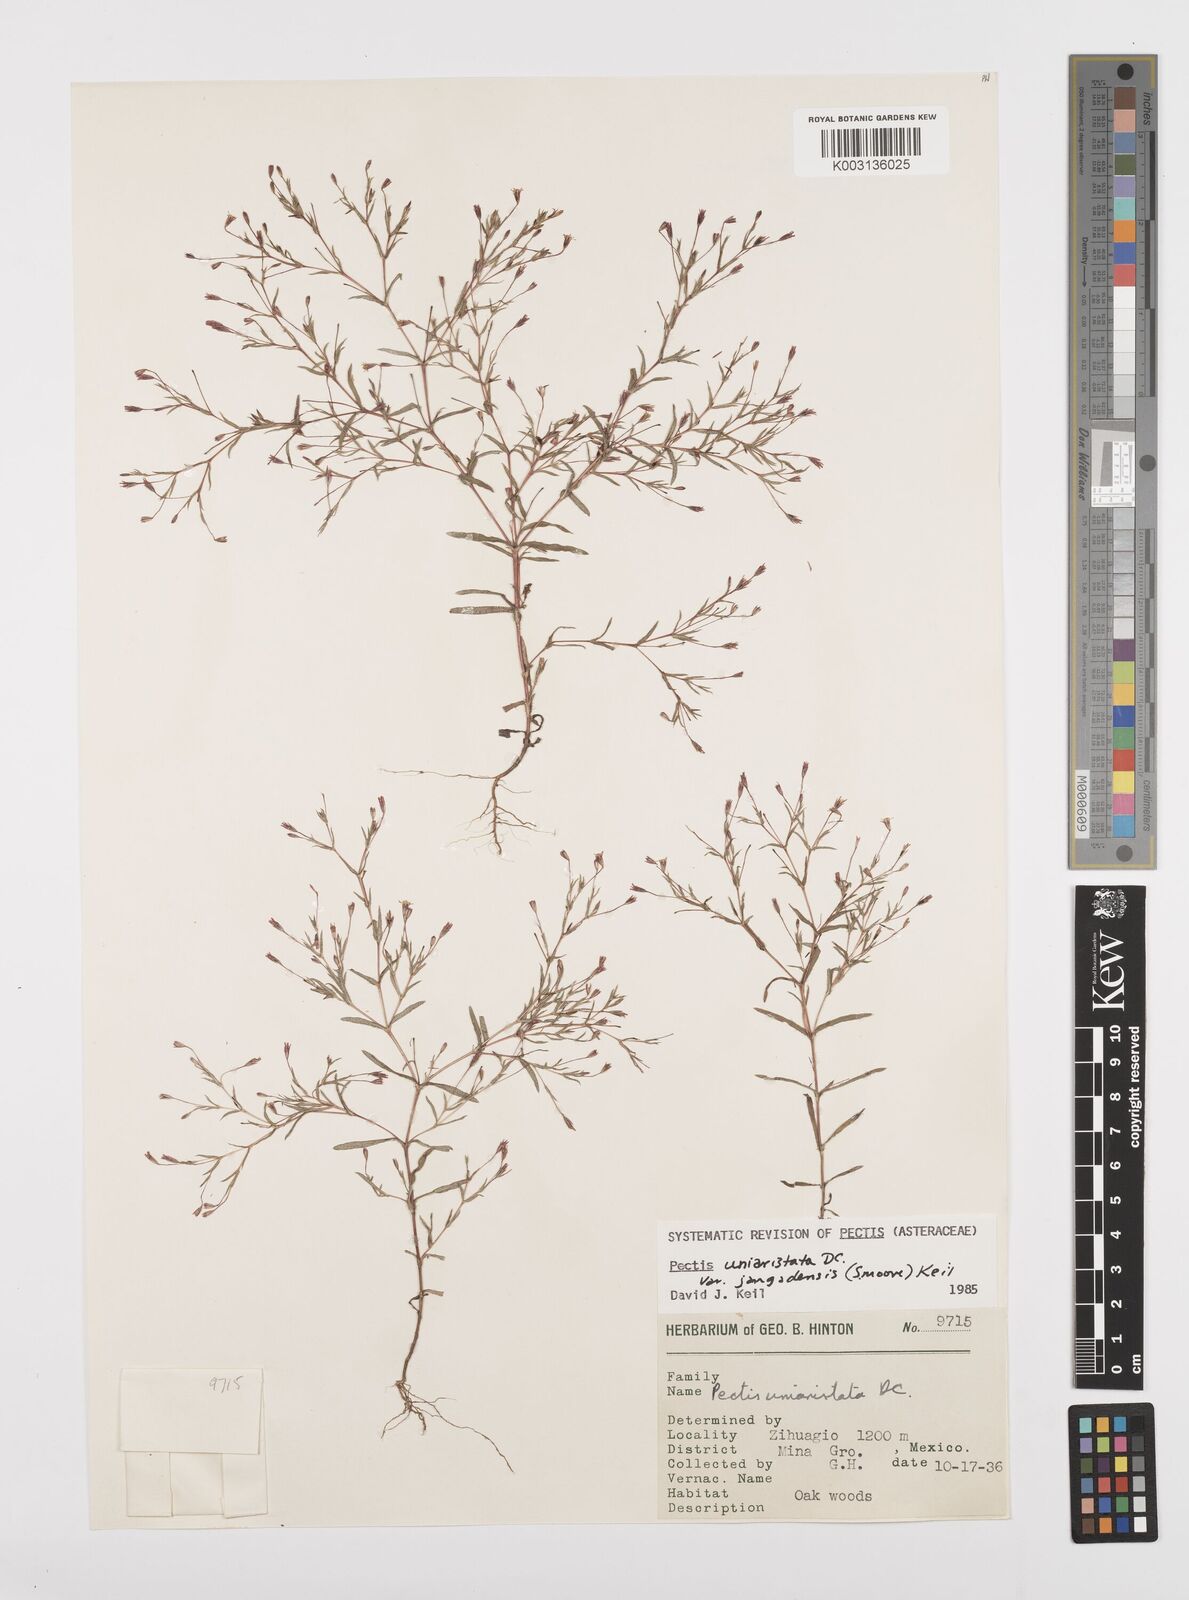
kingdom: Plantae
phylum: Tracheophyta
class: Magnoliopsida
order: Asterales
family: Asteraceae
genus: Pectis
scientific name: Pectis uniaristata
